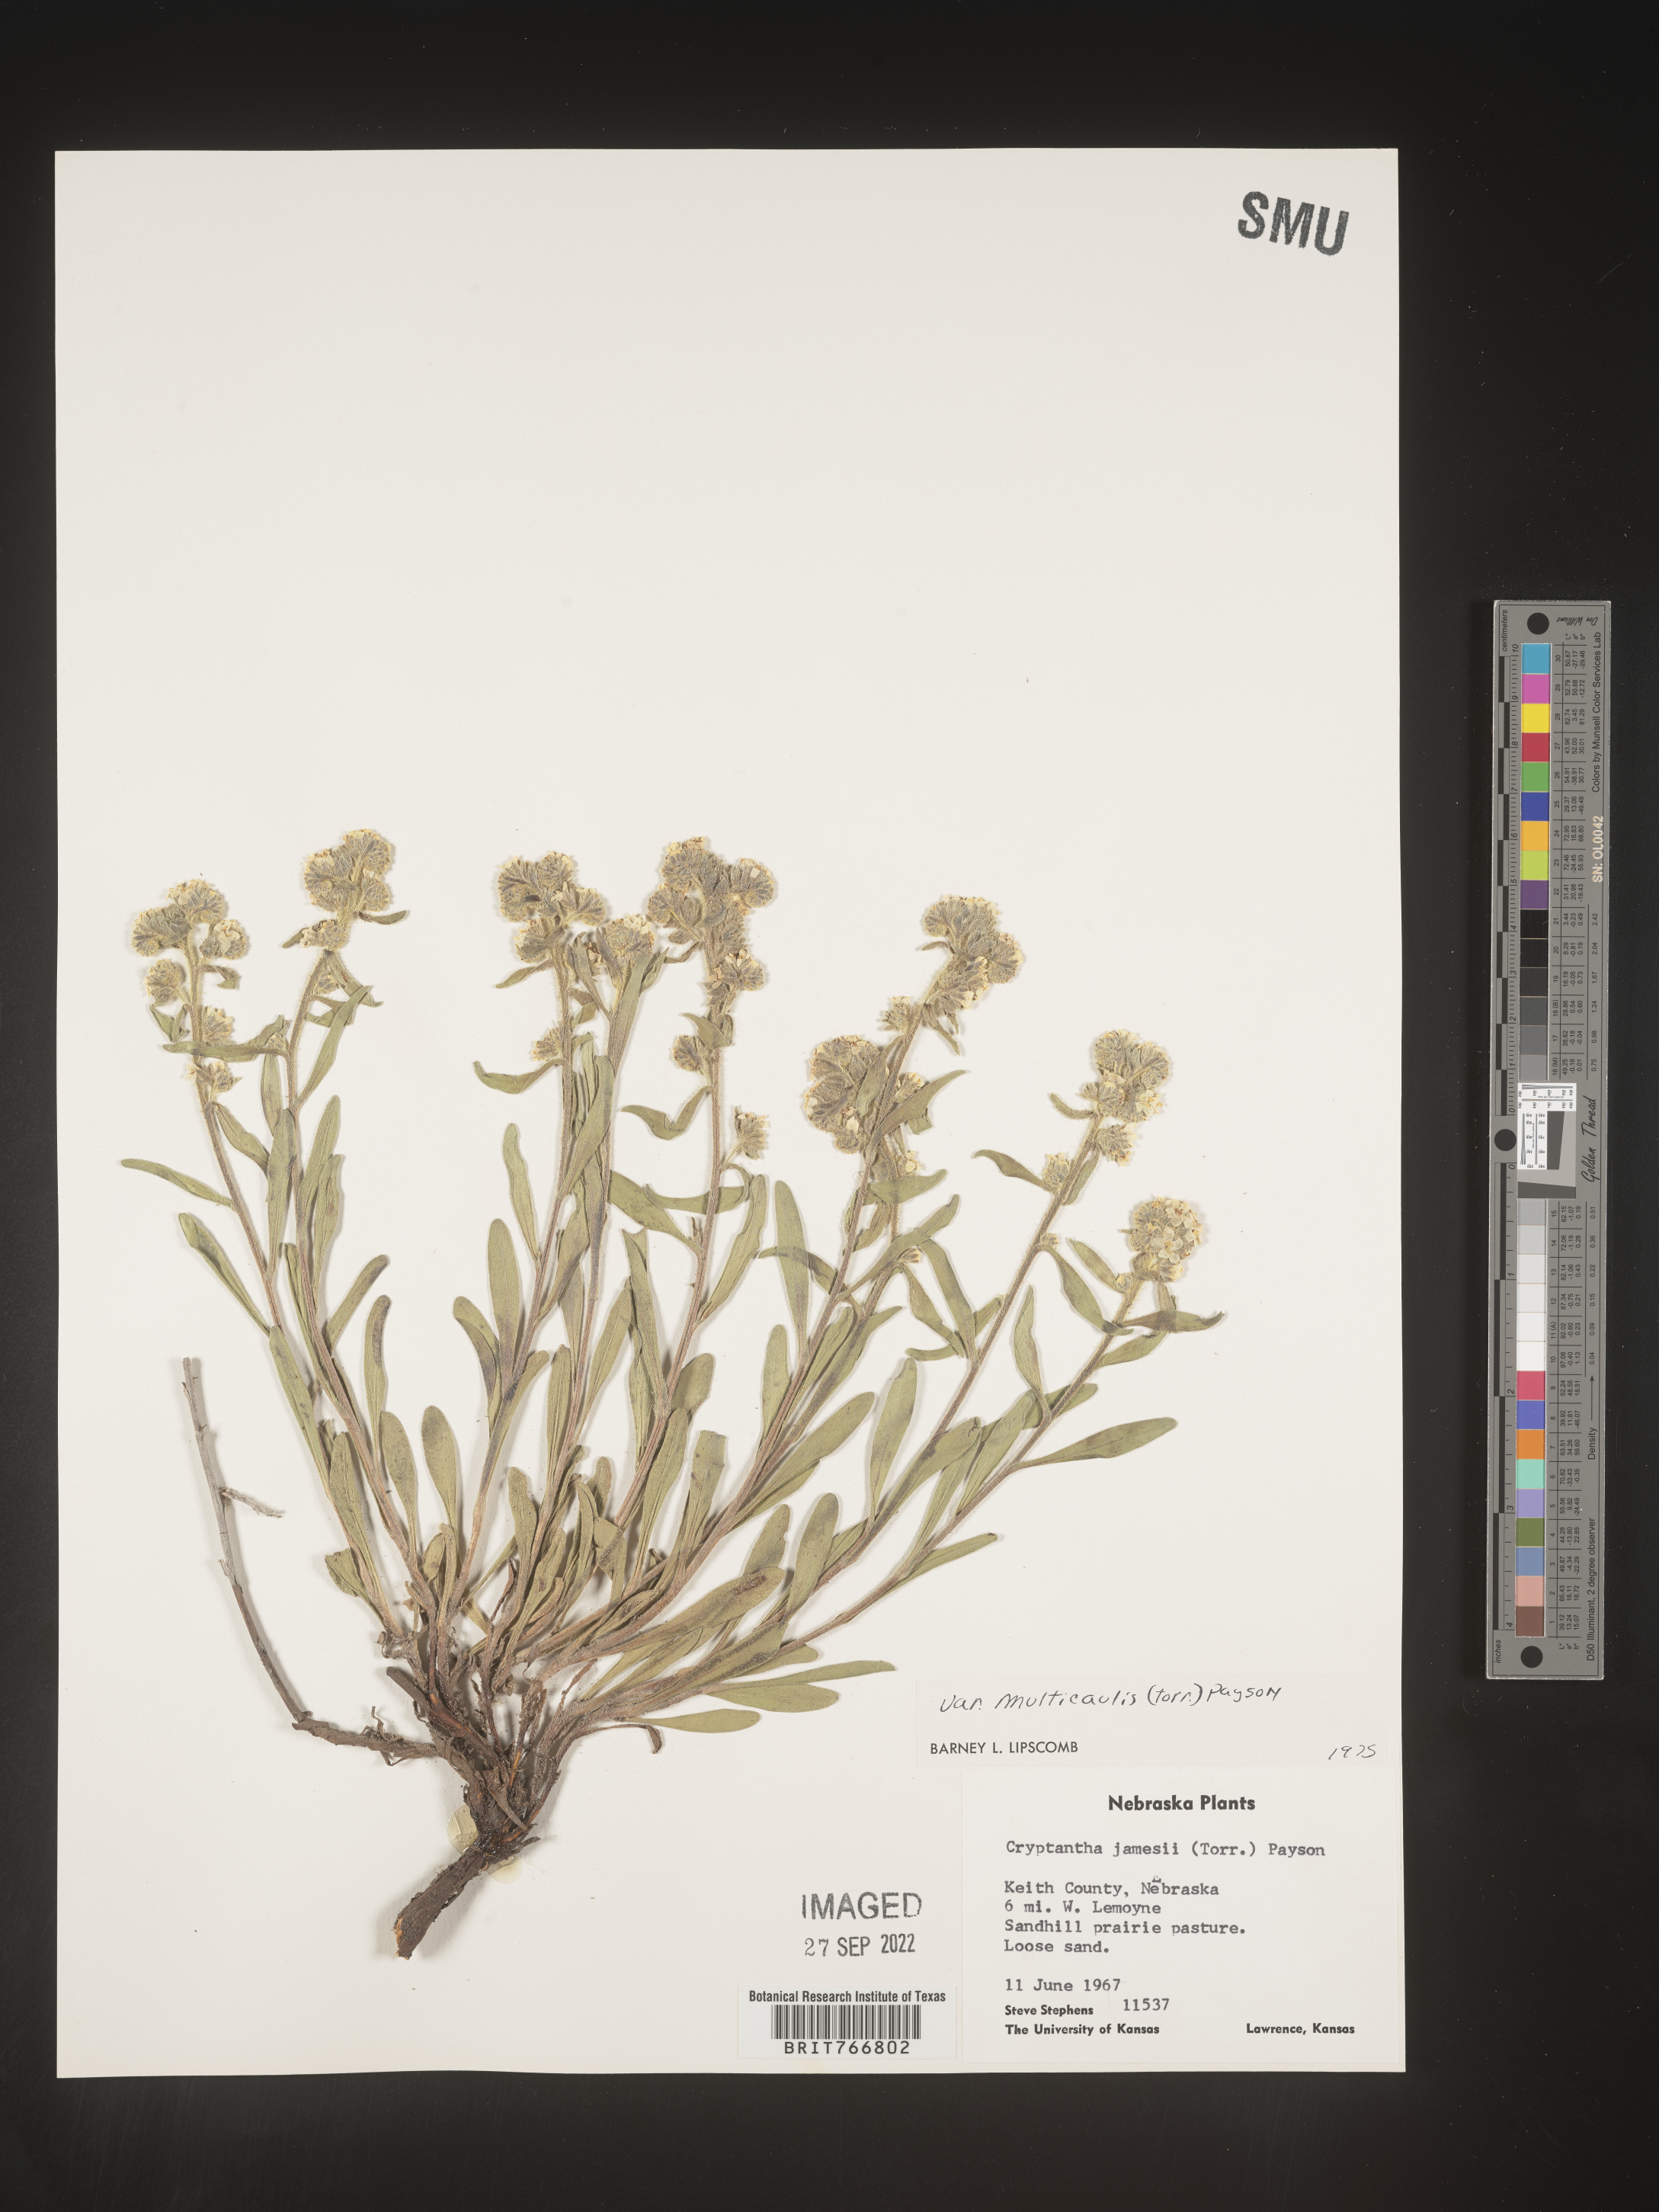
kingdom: Plantae
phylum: Tracheophyta
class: Magnoliopsida
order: Boraginales
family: Boraginaceae
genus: Oreocarya
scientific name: Oreocarya suffruticosa
